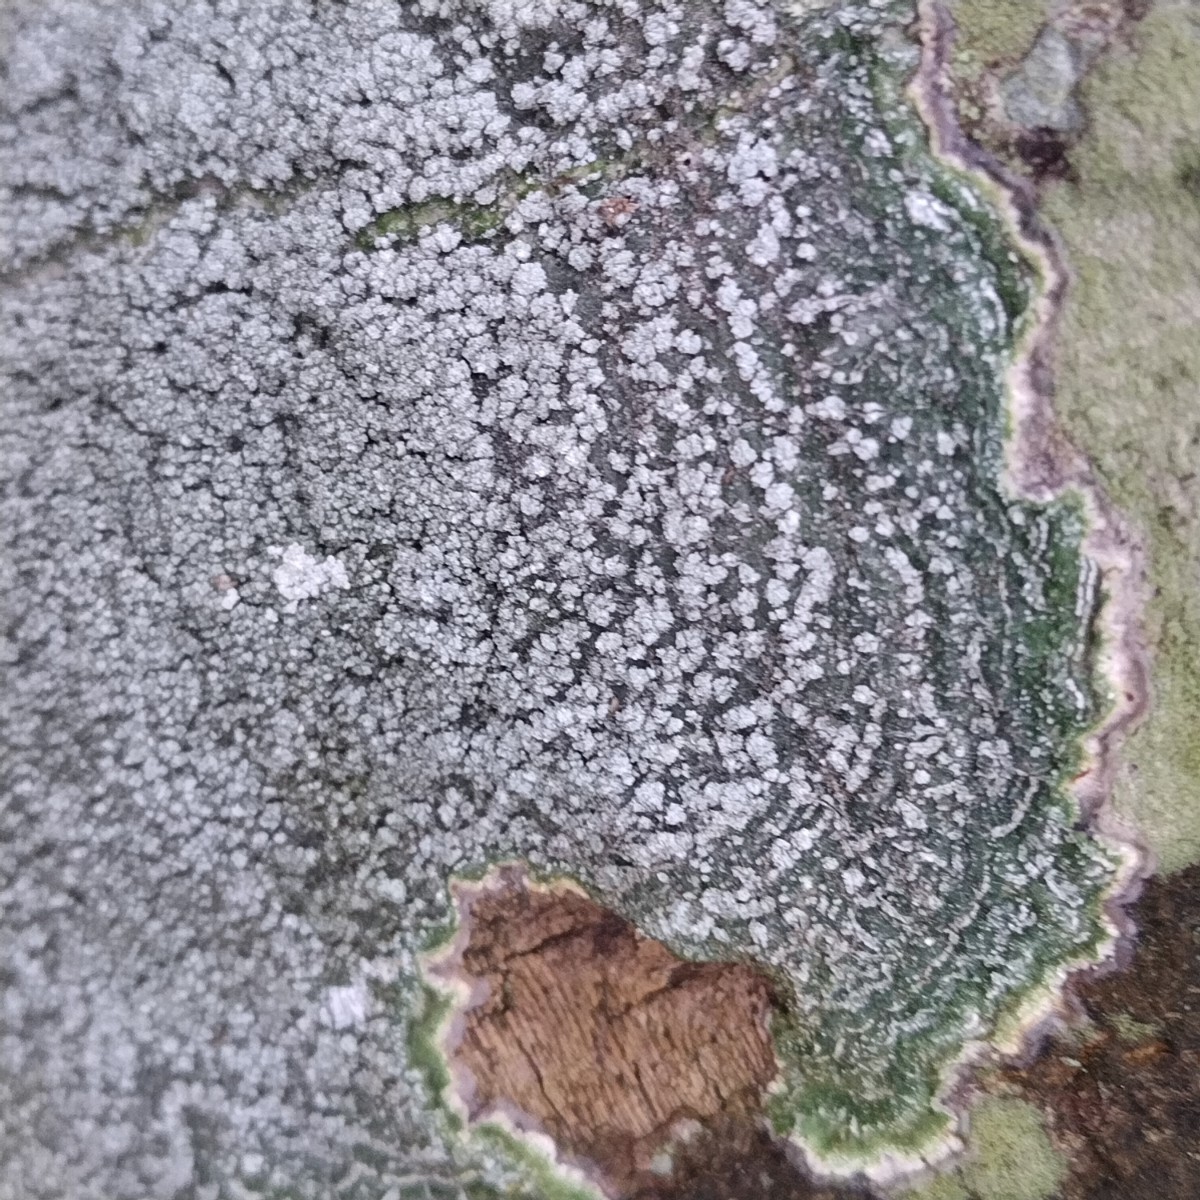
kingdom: Fungi
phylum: Ascomycota
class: Lecanoromycetes
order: Pertusariales
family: Pertusariaceae
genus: Lepra
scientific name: Lepra albescens
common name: hvidmelet prikvortelav
